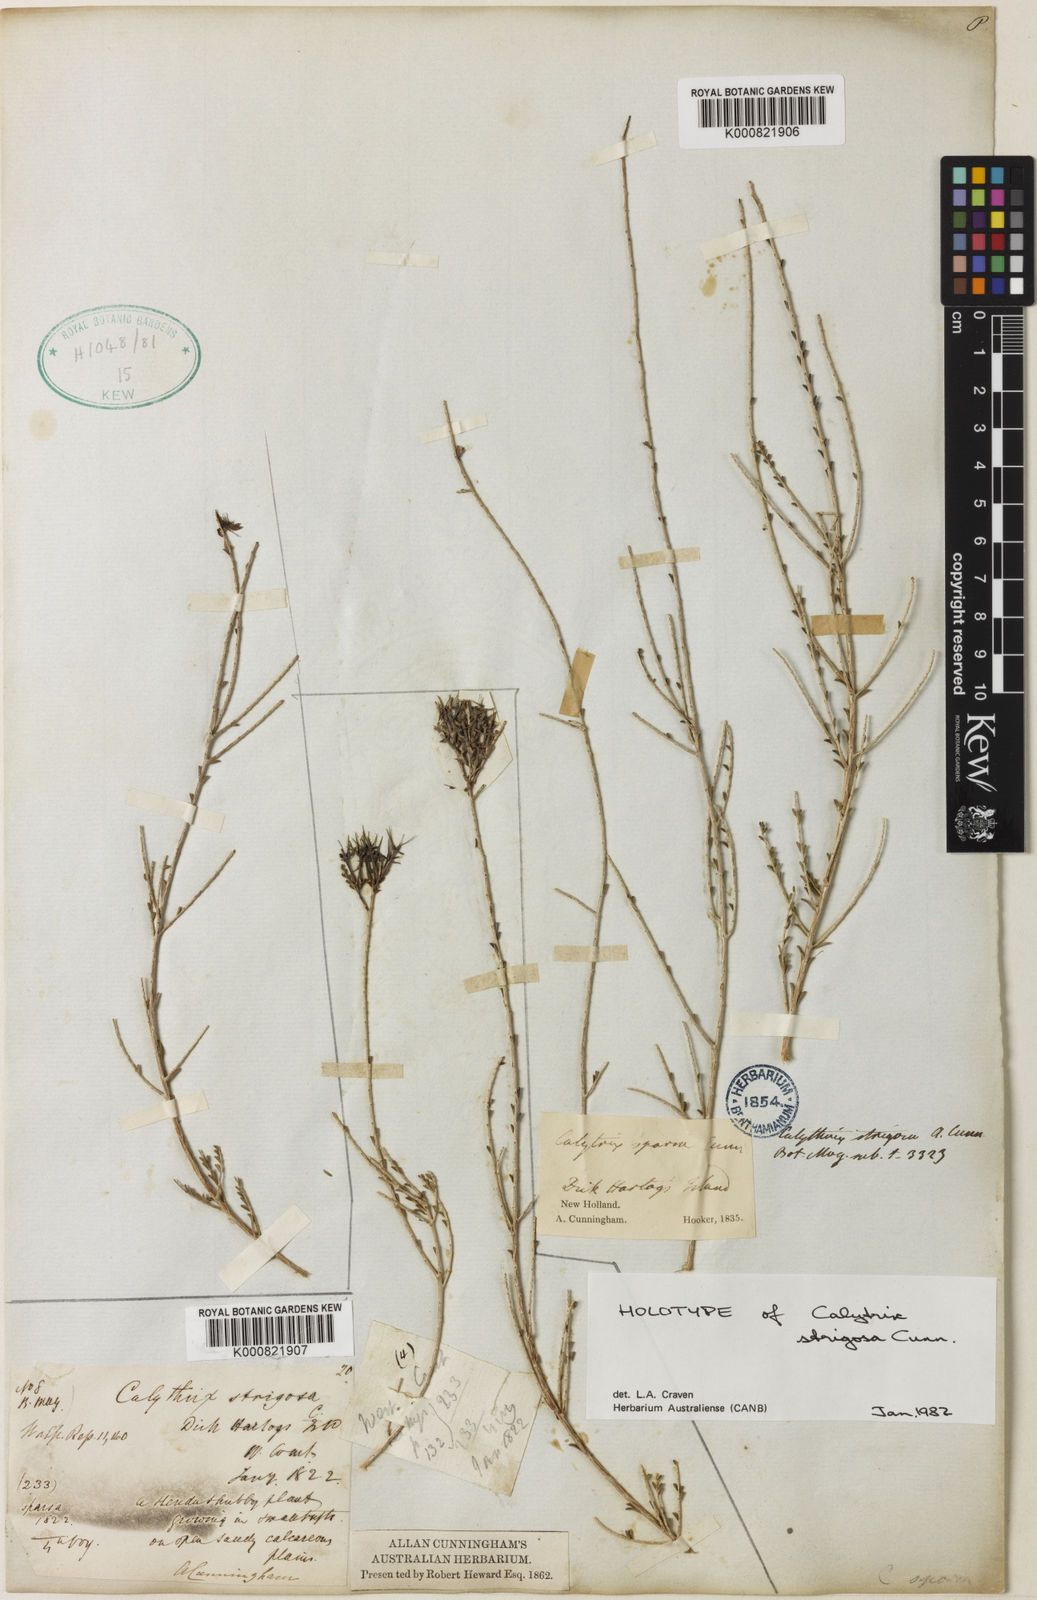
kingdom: Plantae
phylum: Tracheophyta
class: Magnoliopsida
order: Myrtales
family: Myrtaceae
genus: Calytrix
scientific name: Calytrix strigosa
